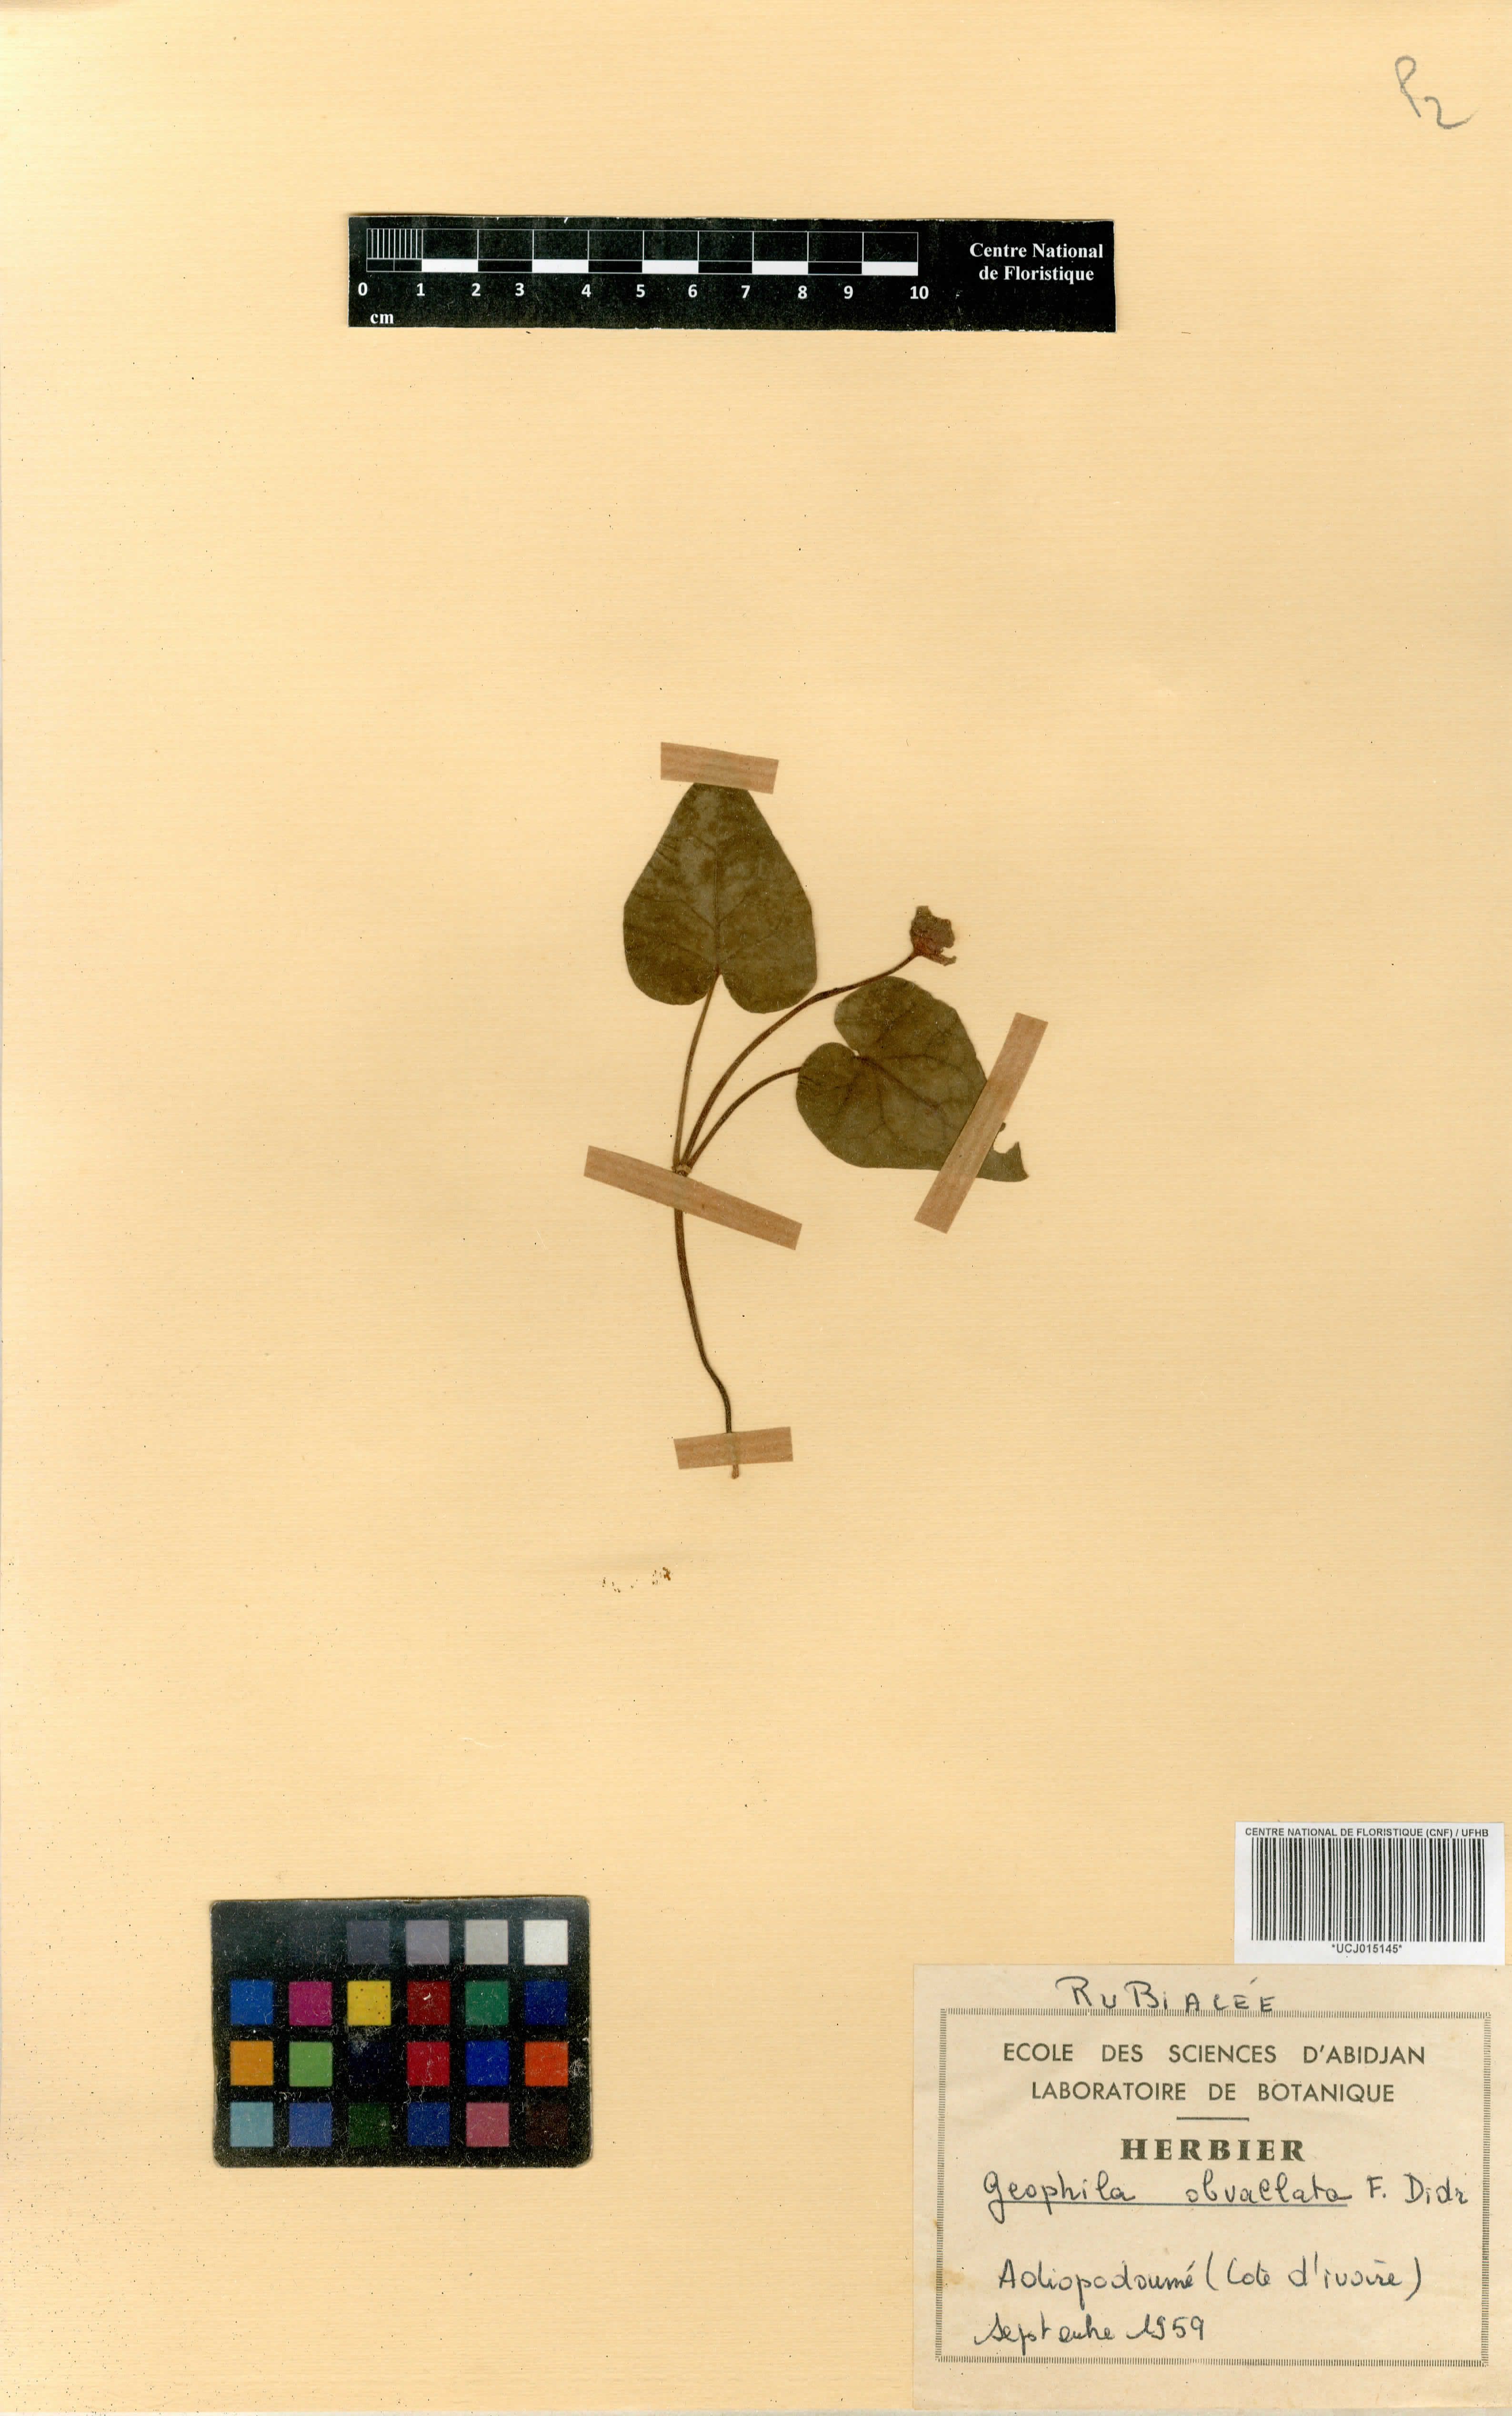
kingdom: Plantae
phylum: Tracheophyta
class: Magnoliopsida
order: Gentianales
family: Rubiaceae
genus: Geophila
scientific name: Geophila obvallata
